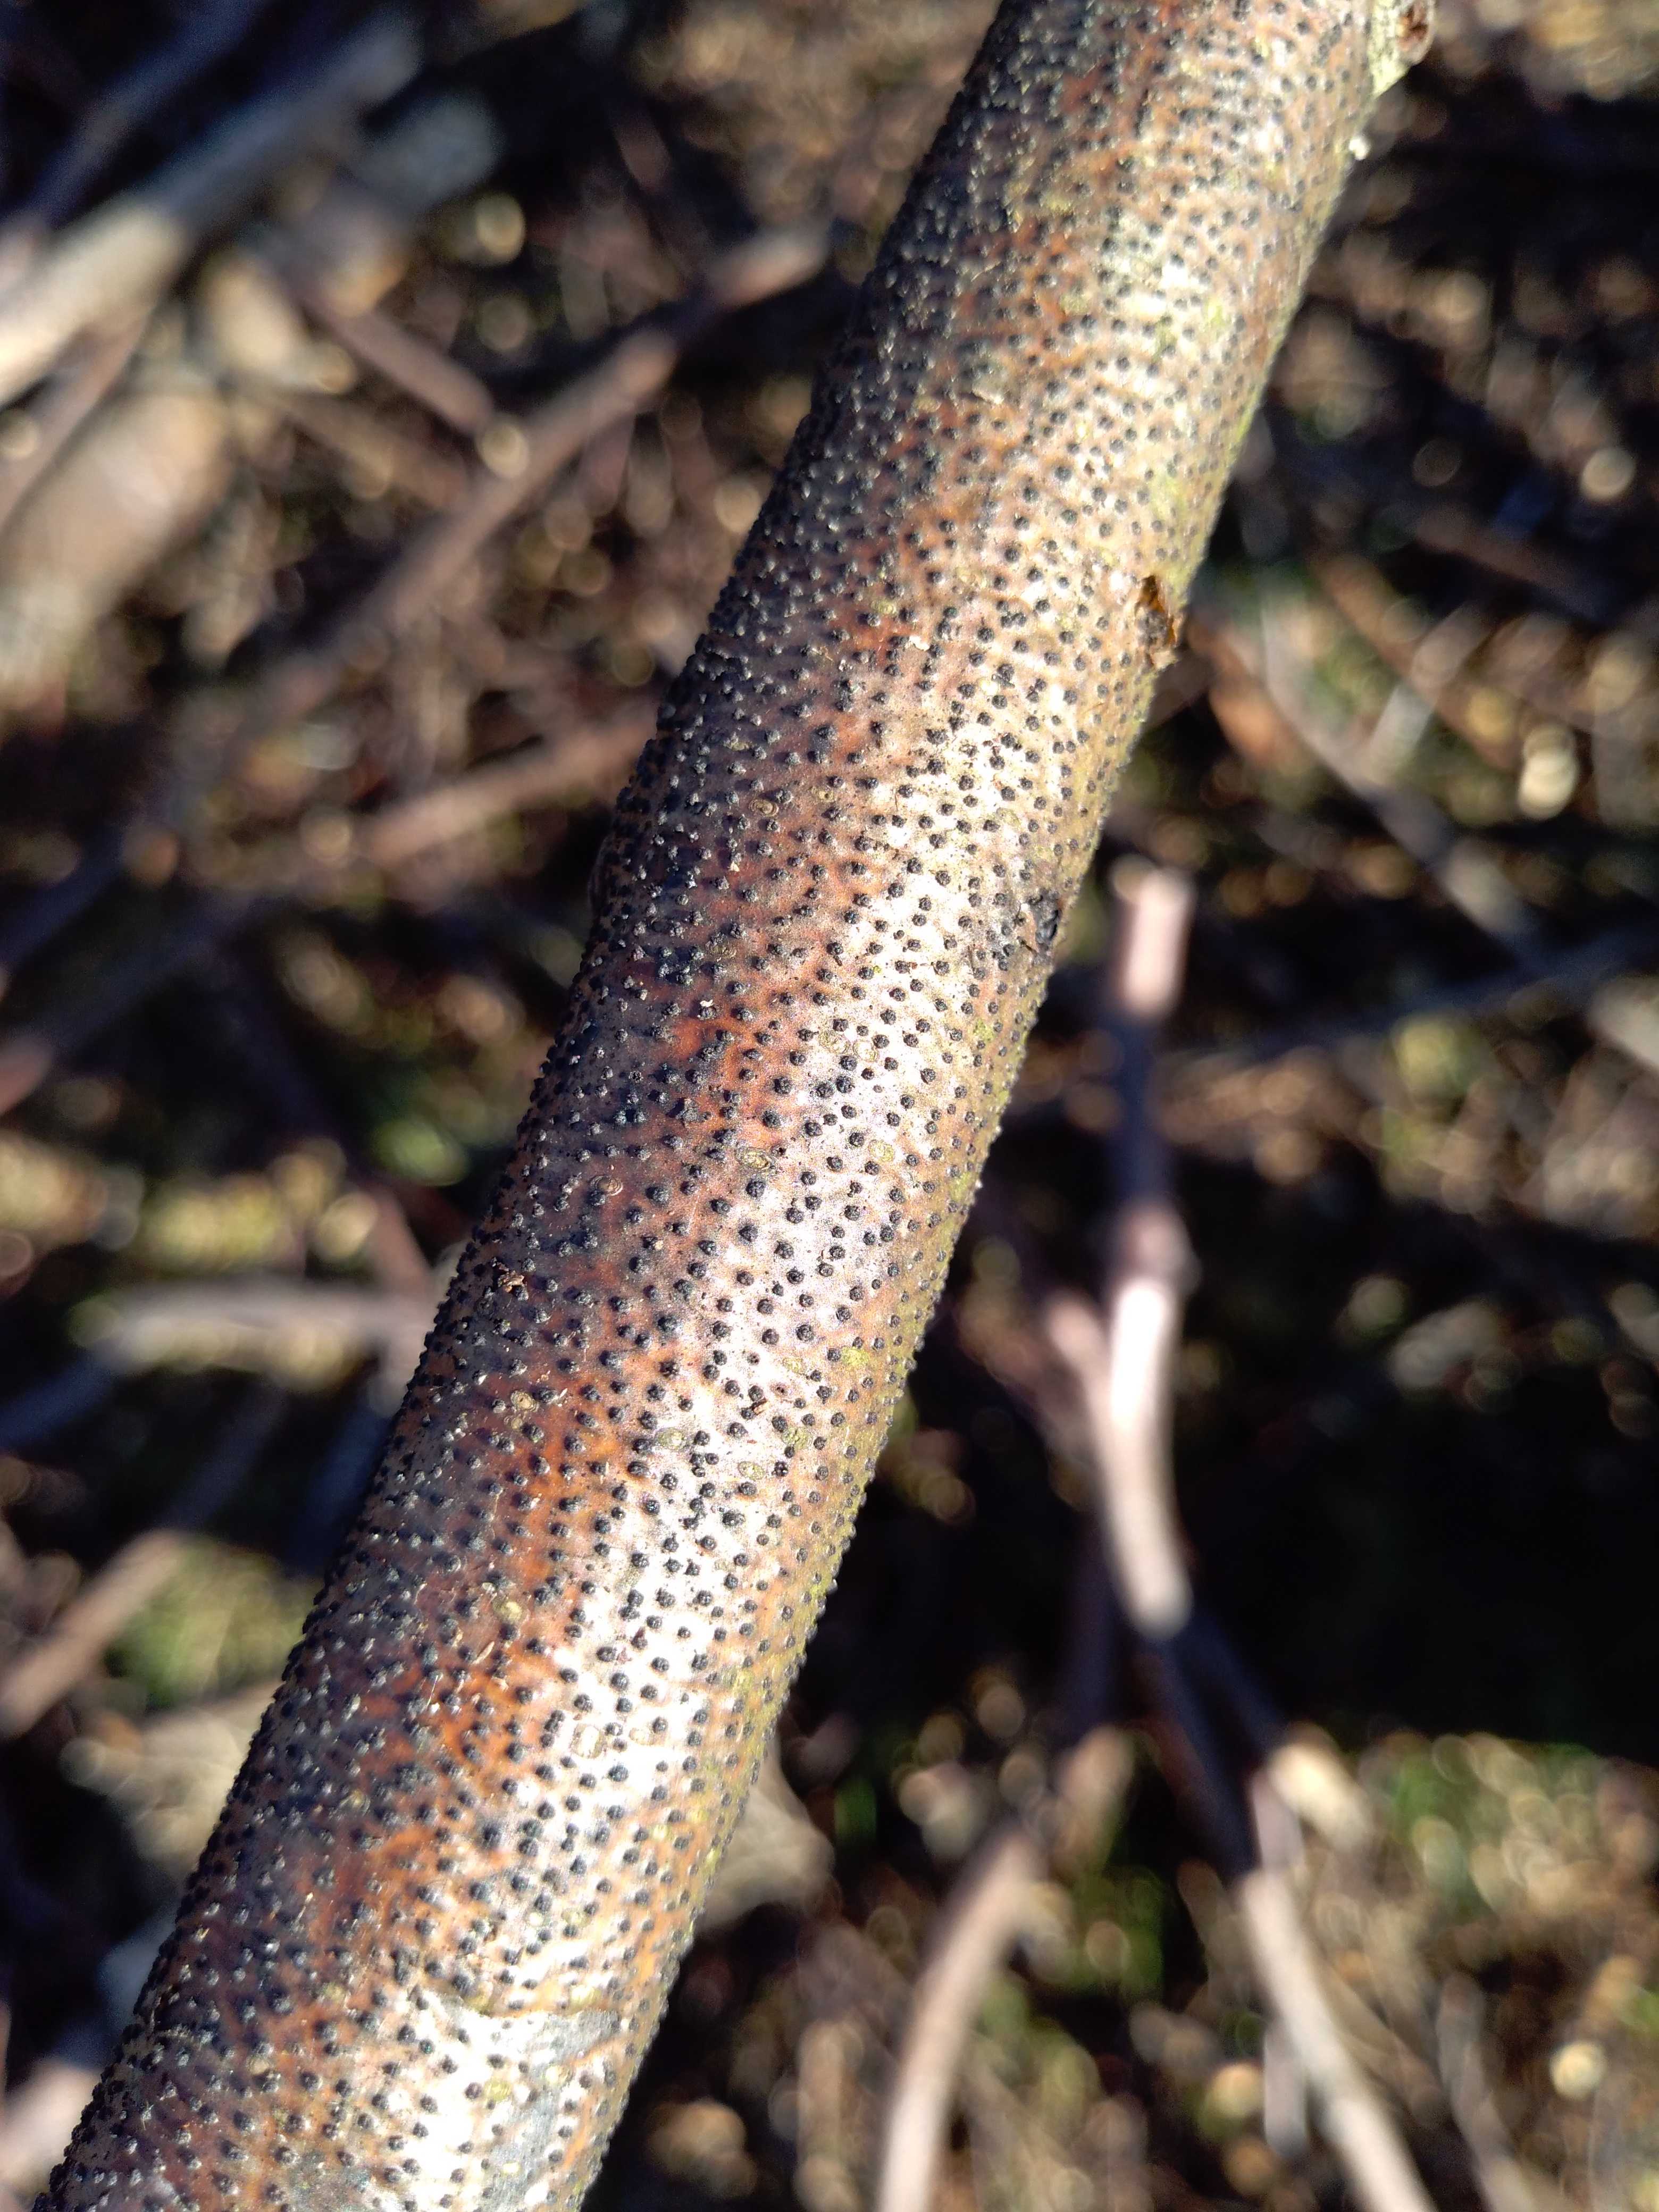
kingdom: Fungi
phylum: Ascomycota
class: Sordariomycetes
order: Xylariales
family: Diatrypaceae
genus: Eutypella
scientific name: Eutypella quaternata
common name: bøge-korsprik
